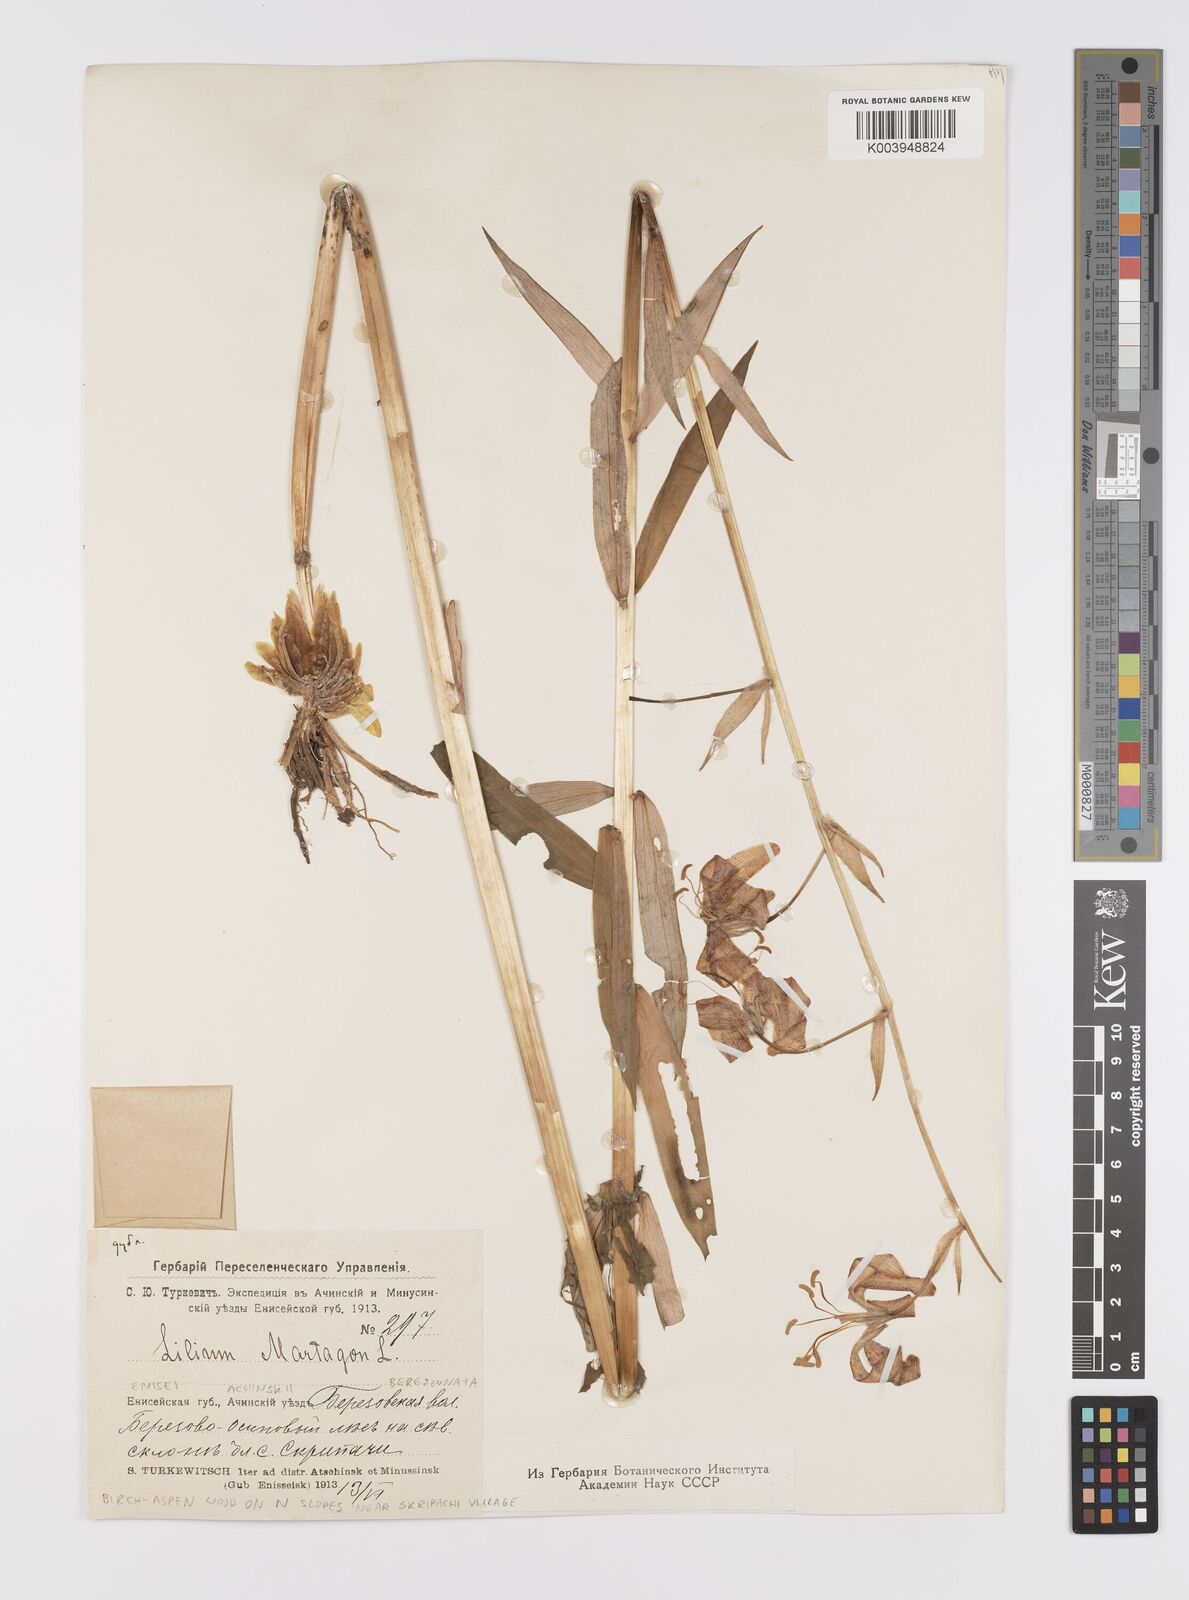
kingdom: Plantae
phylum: Tracheophyta
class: Liliopsida
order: Liliales
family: Liliaceae
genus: Lilium
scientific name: Lilium martagon
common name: Martagon lily
